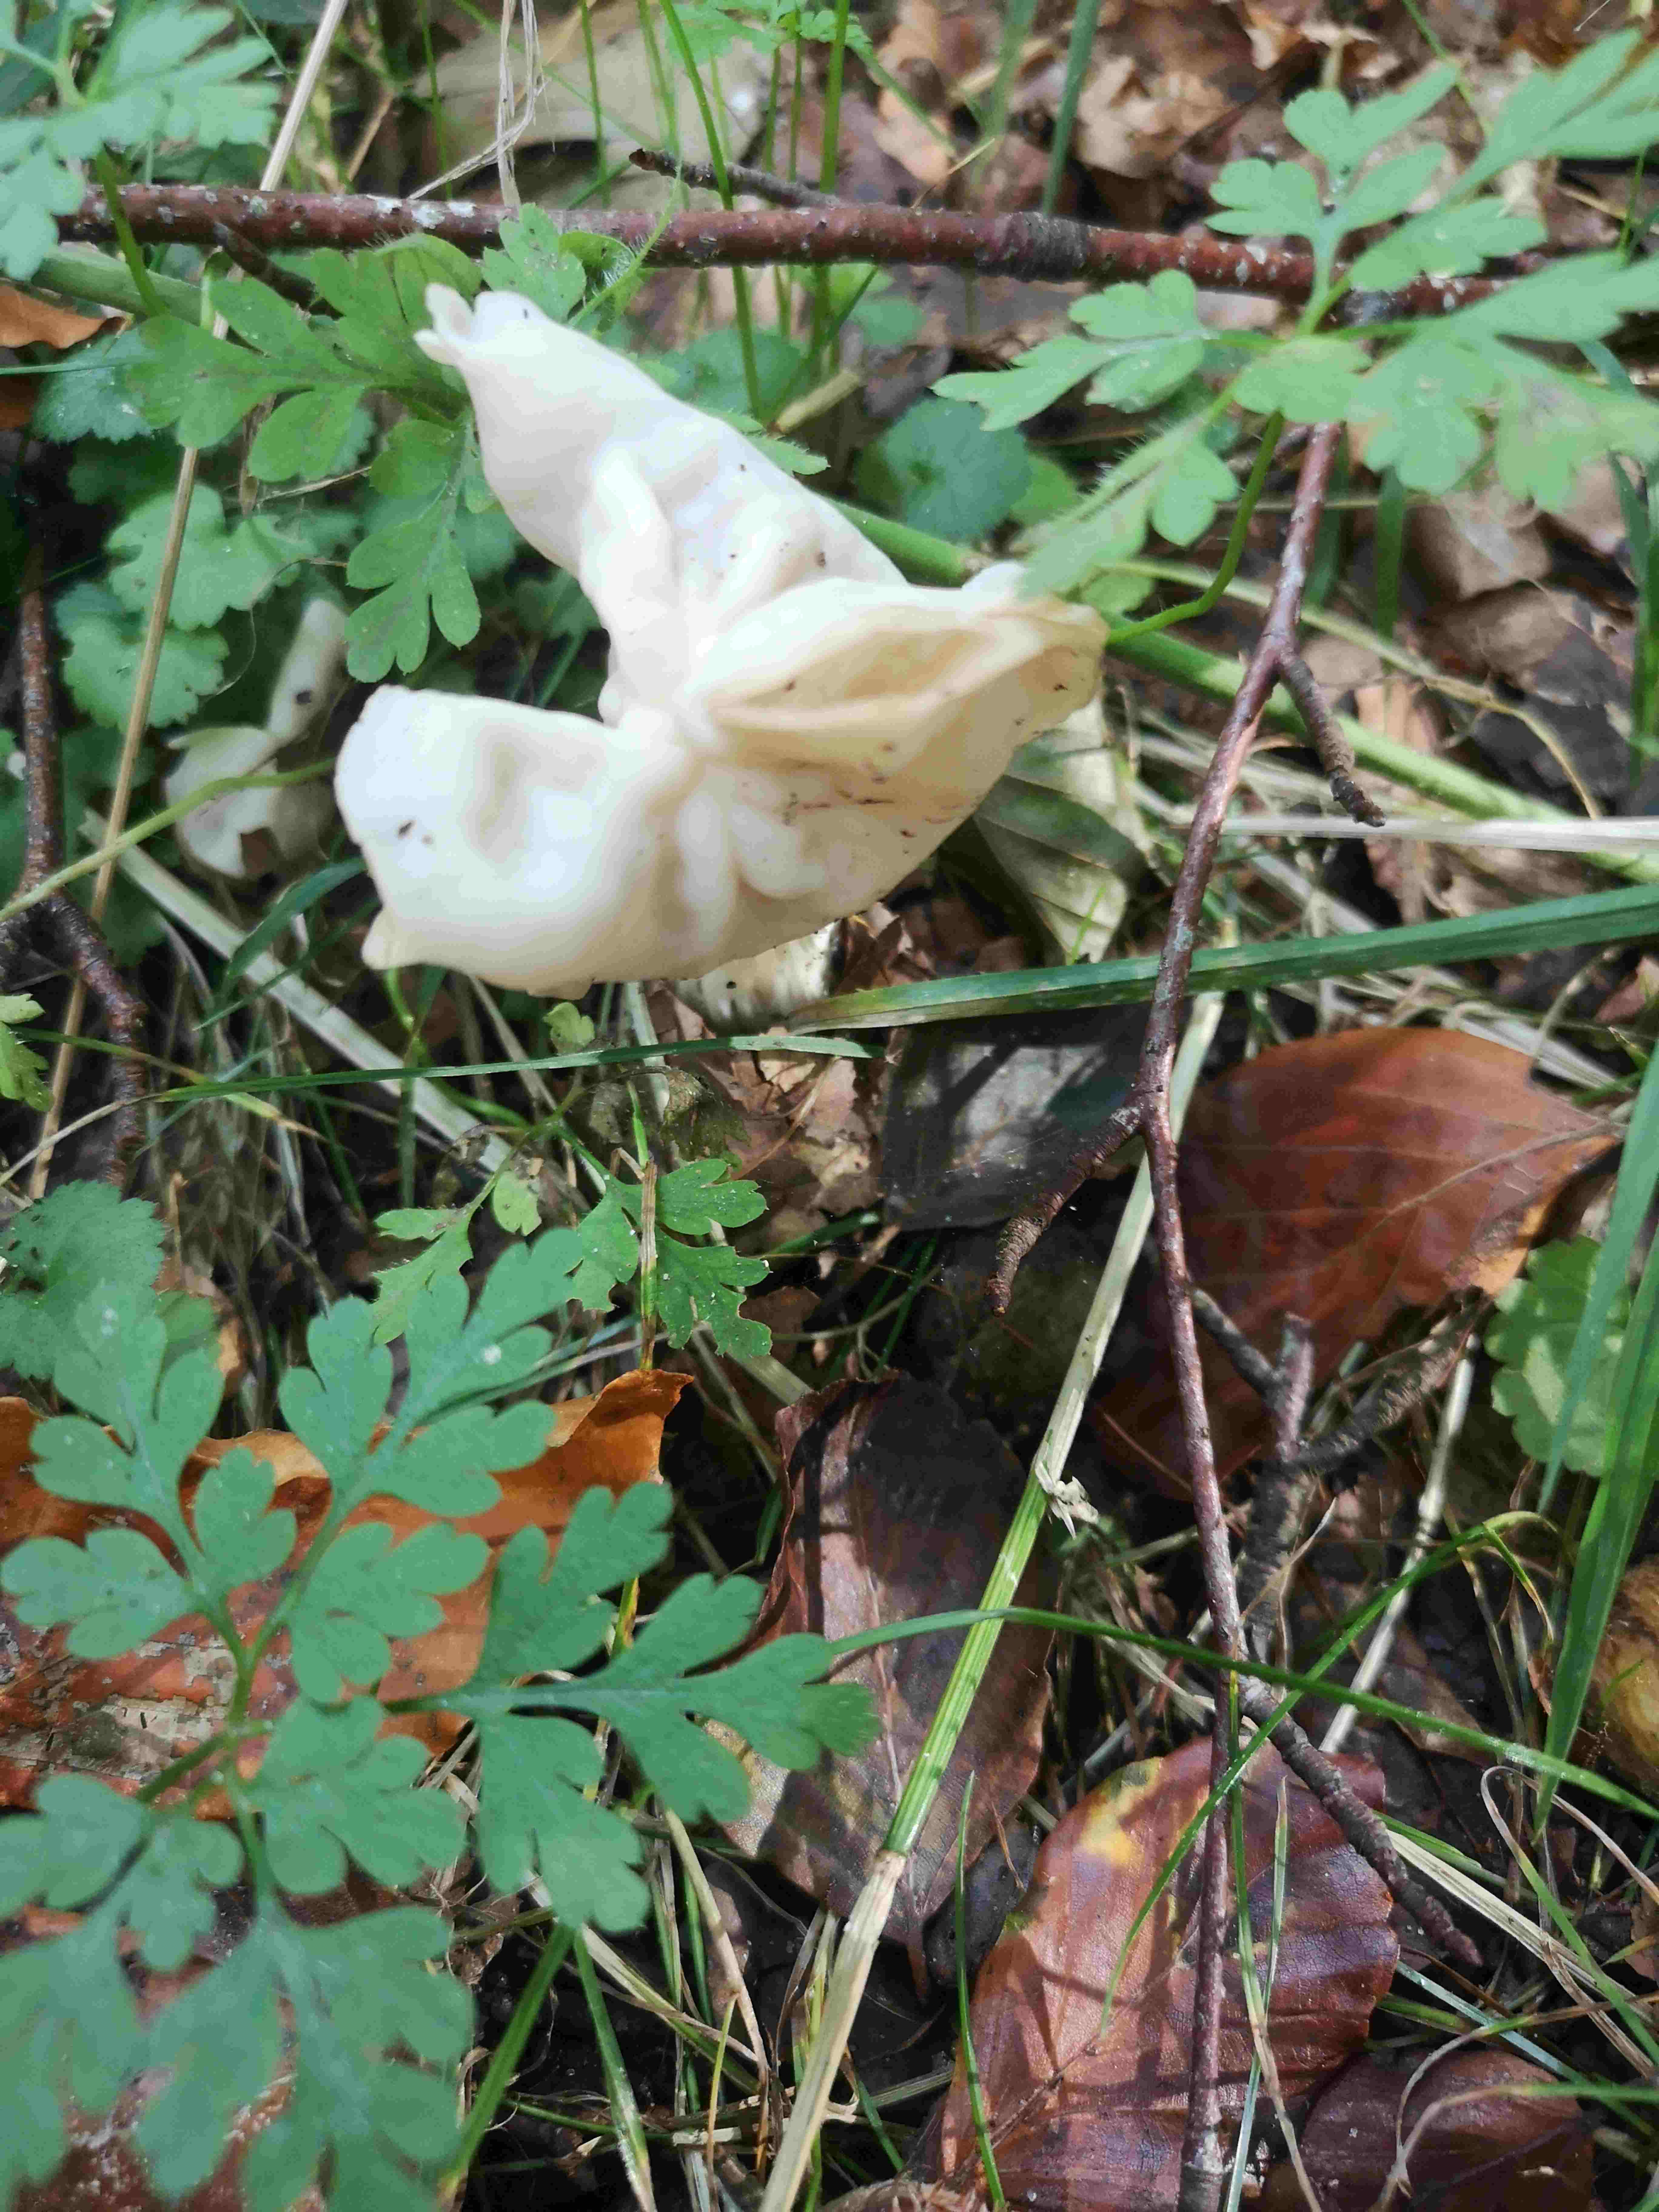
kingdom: Fungi
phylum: Ascomycota
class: Pezizomycetes
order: Pezizales
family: Helvellaceae
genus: Helvella
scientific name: Helvella crispa
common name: kruset foldhat
